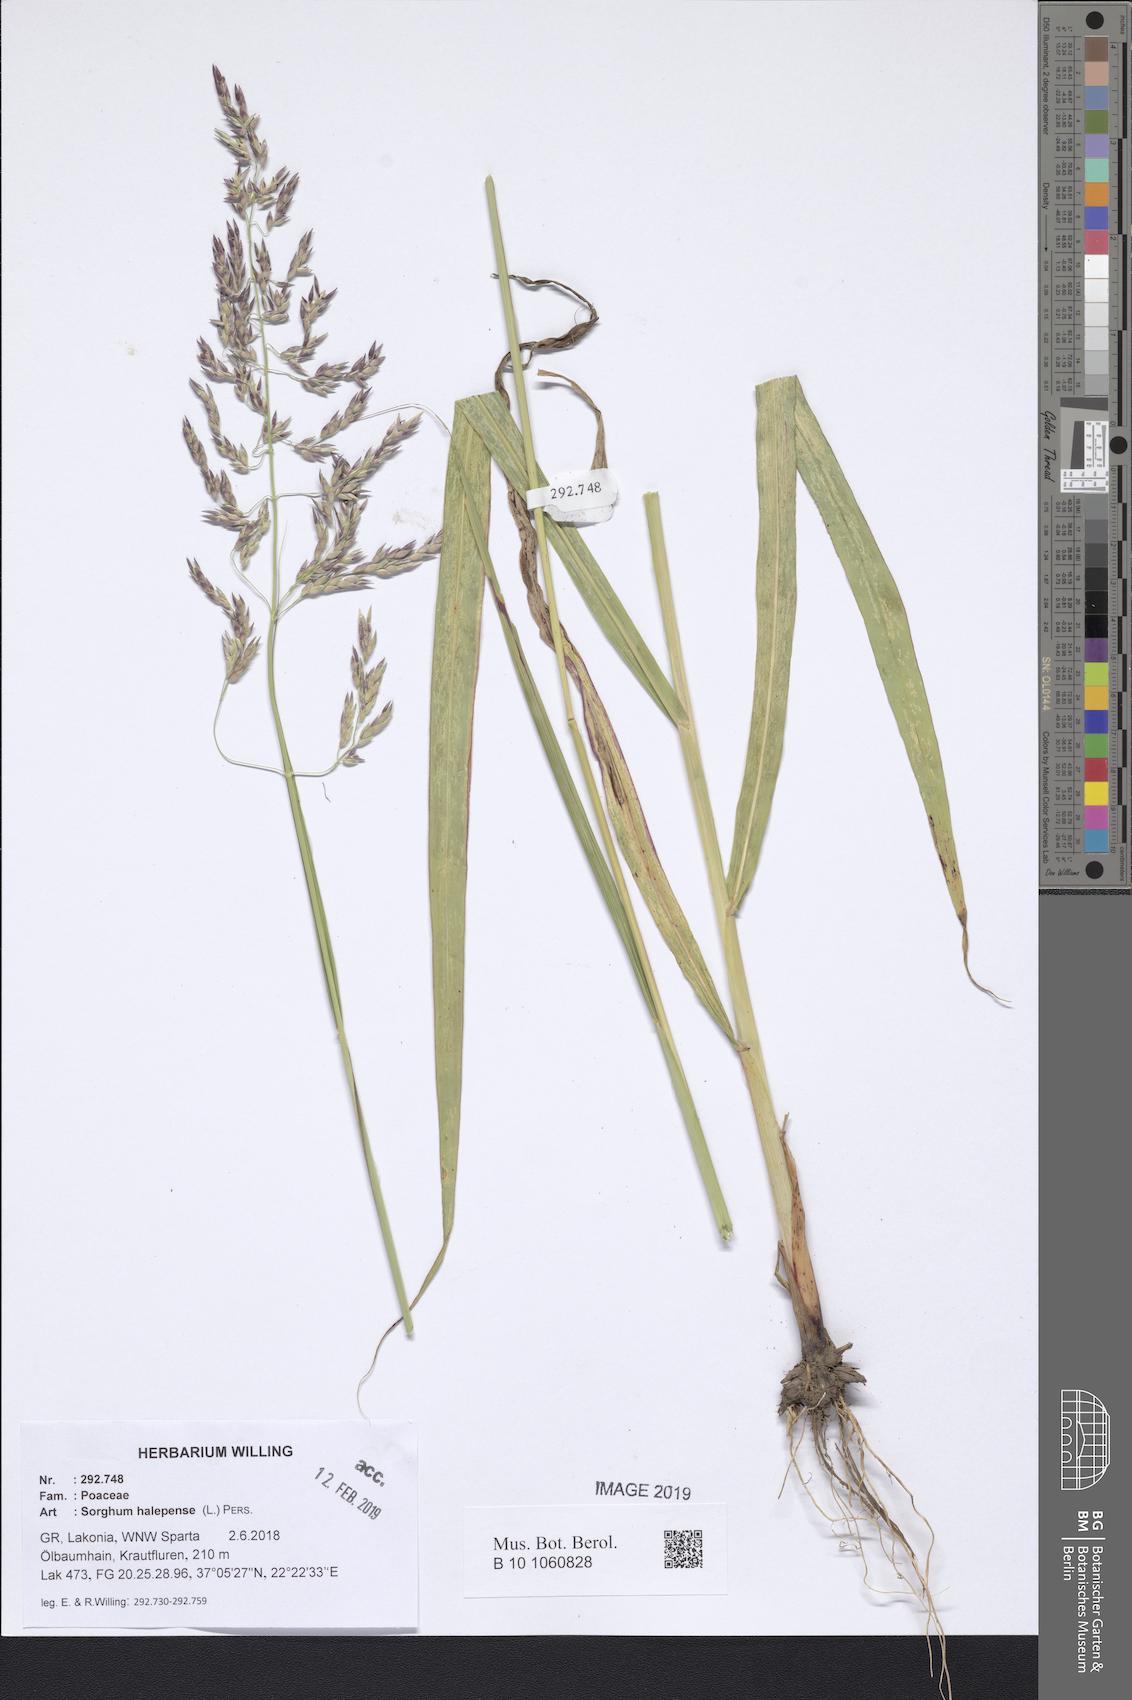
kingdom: Plantae
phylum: Tracheophyta
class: Liliopsida
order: Poales
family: Poaceae
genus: Sorghum
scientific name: Sorghum halepense
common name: Johnson-grass
